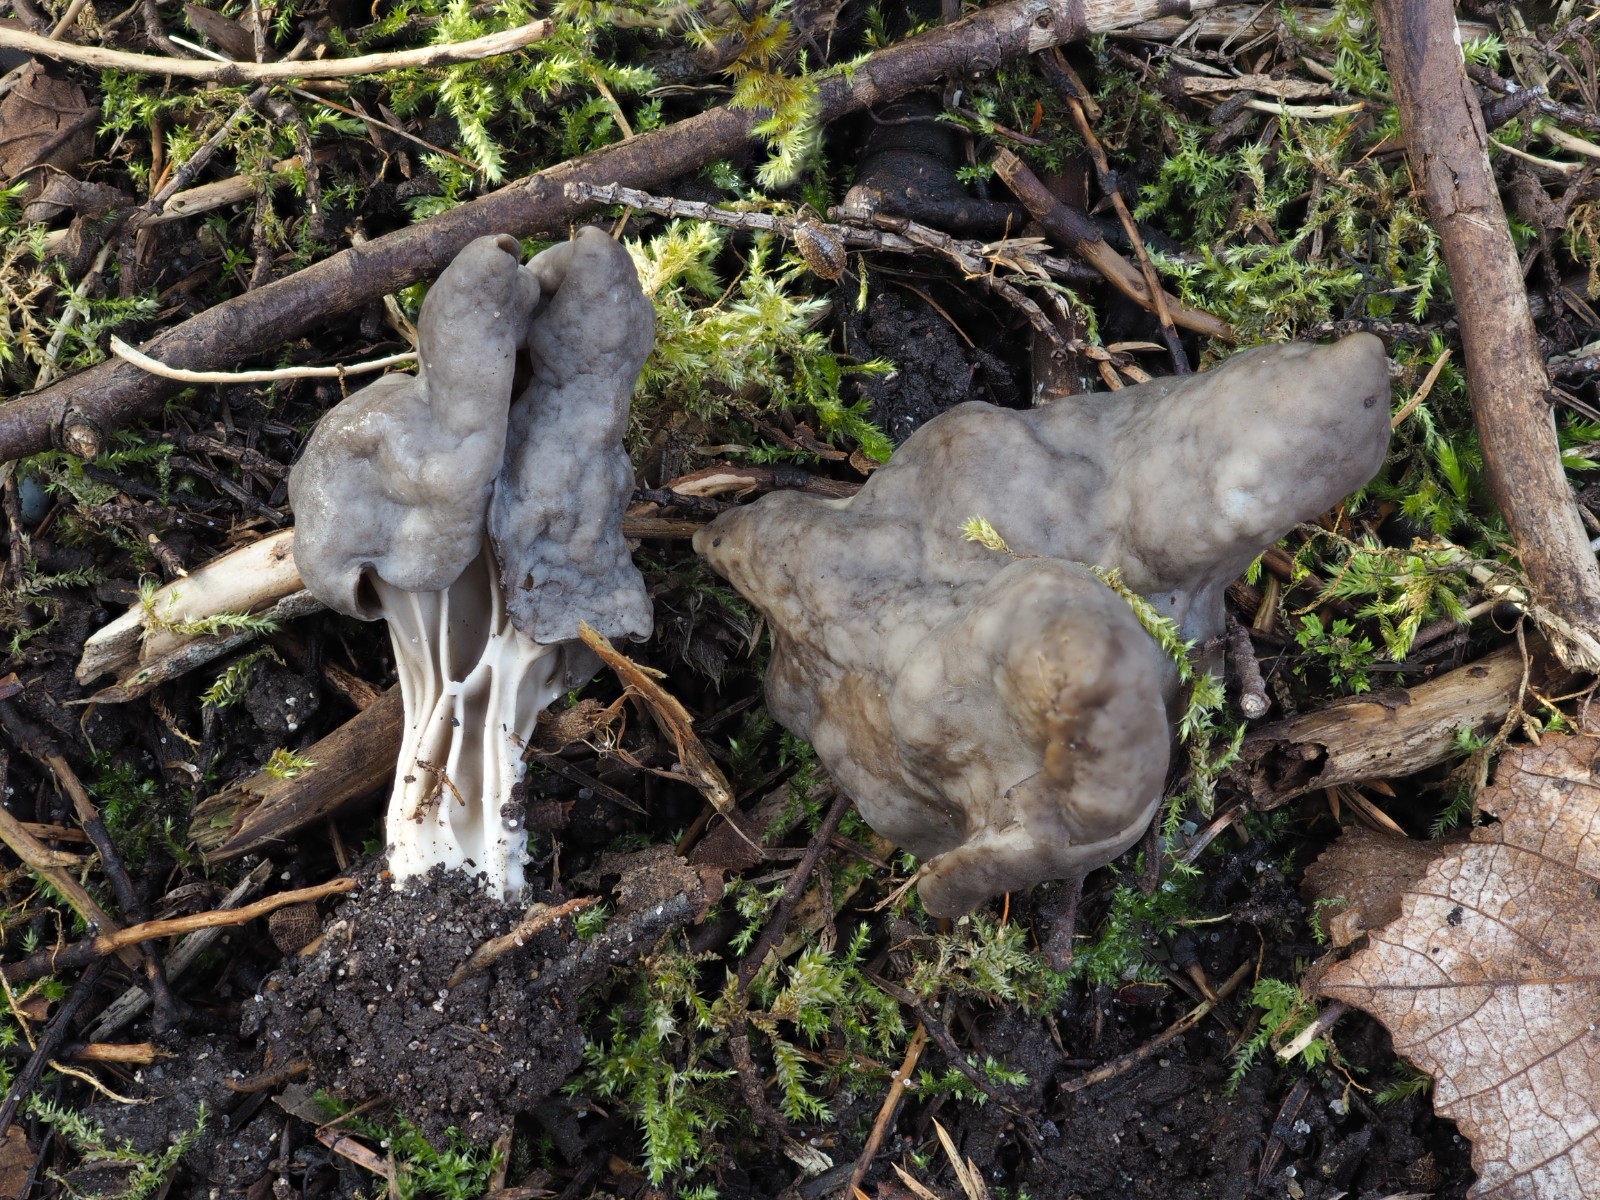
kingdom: Fungi
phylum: Ascomycota
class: Pezizomycetes
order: Pezizales
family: Helvellaceae
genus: Helvella
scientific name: Helvella lacunosa
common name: grubet foldhat
